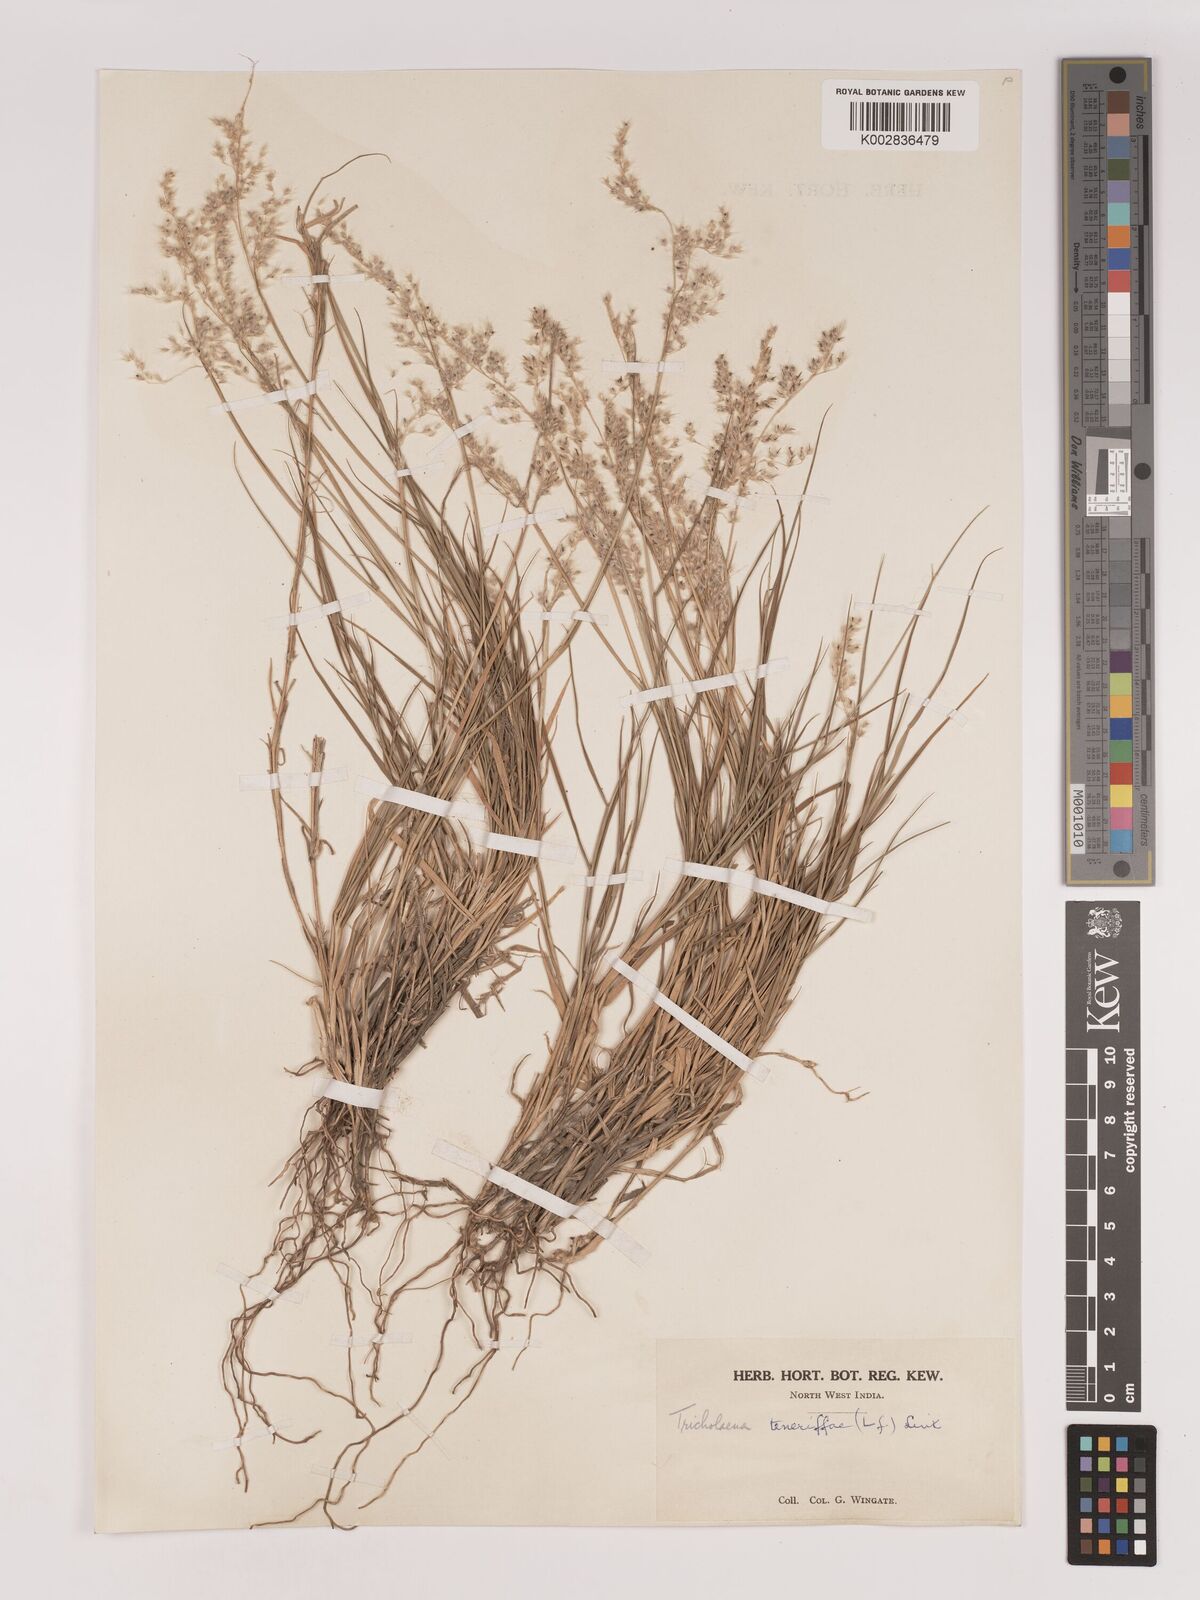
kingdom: Plantae
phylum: Tracheophyta
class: Liliopsida
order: Poales
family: Poaceae
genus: Tricholaena
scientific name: Tricholaena teneriffae
